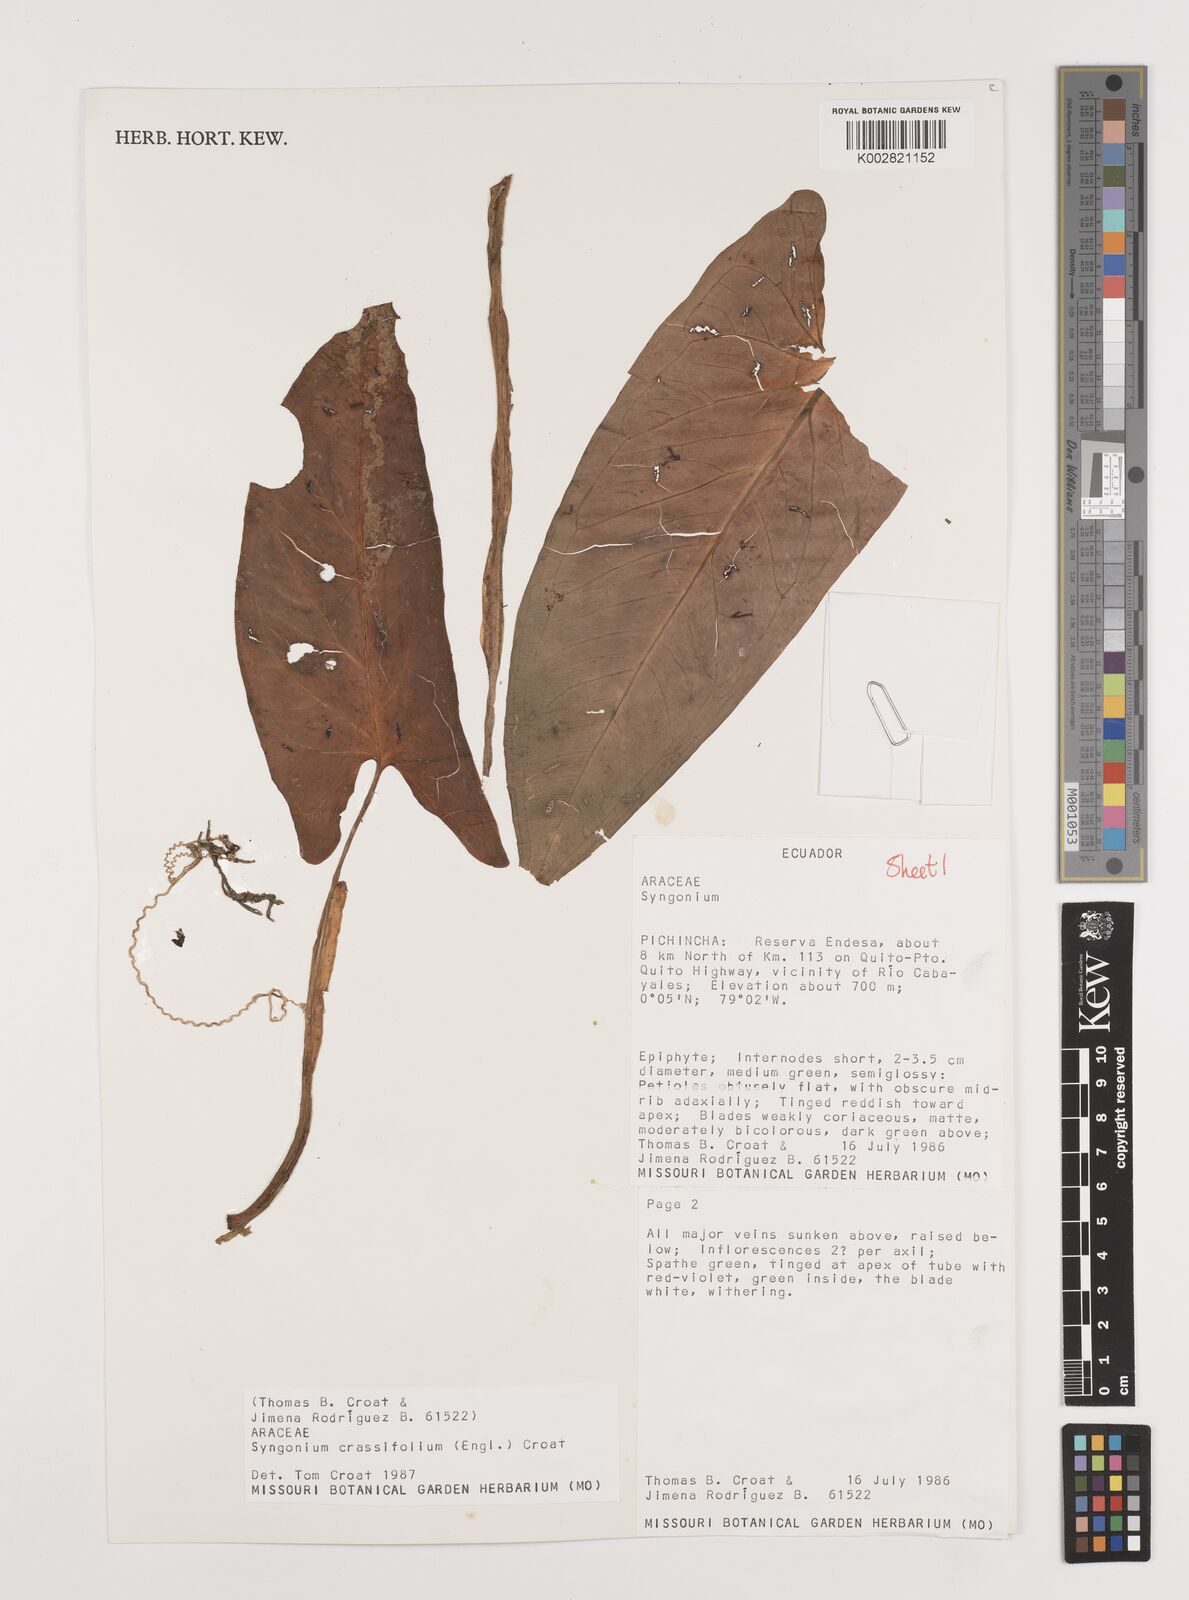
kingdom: Plantae
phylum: Tracheophyta
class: Liliopsida
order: Alismatales
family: Araceae
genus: Syngonium
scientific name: Syngonium crassifolium
